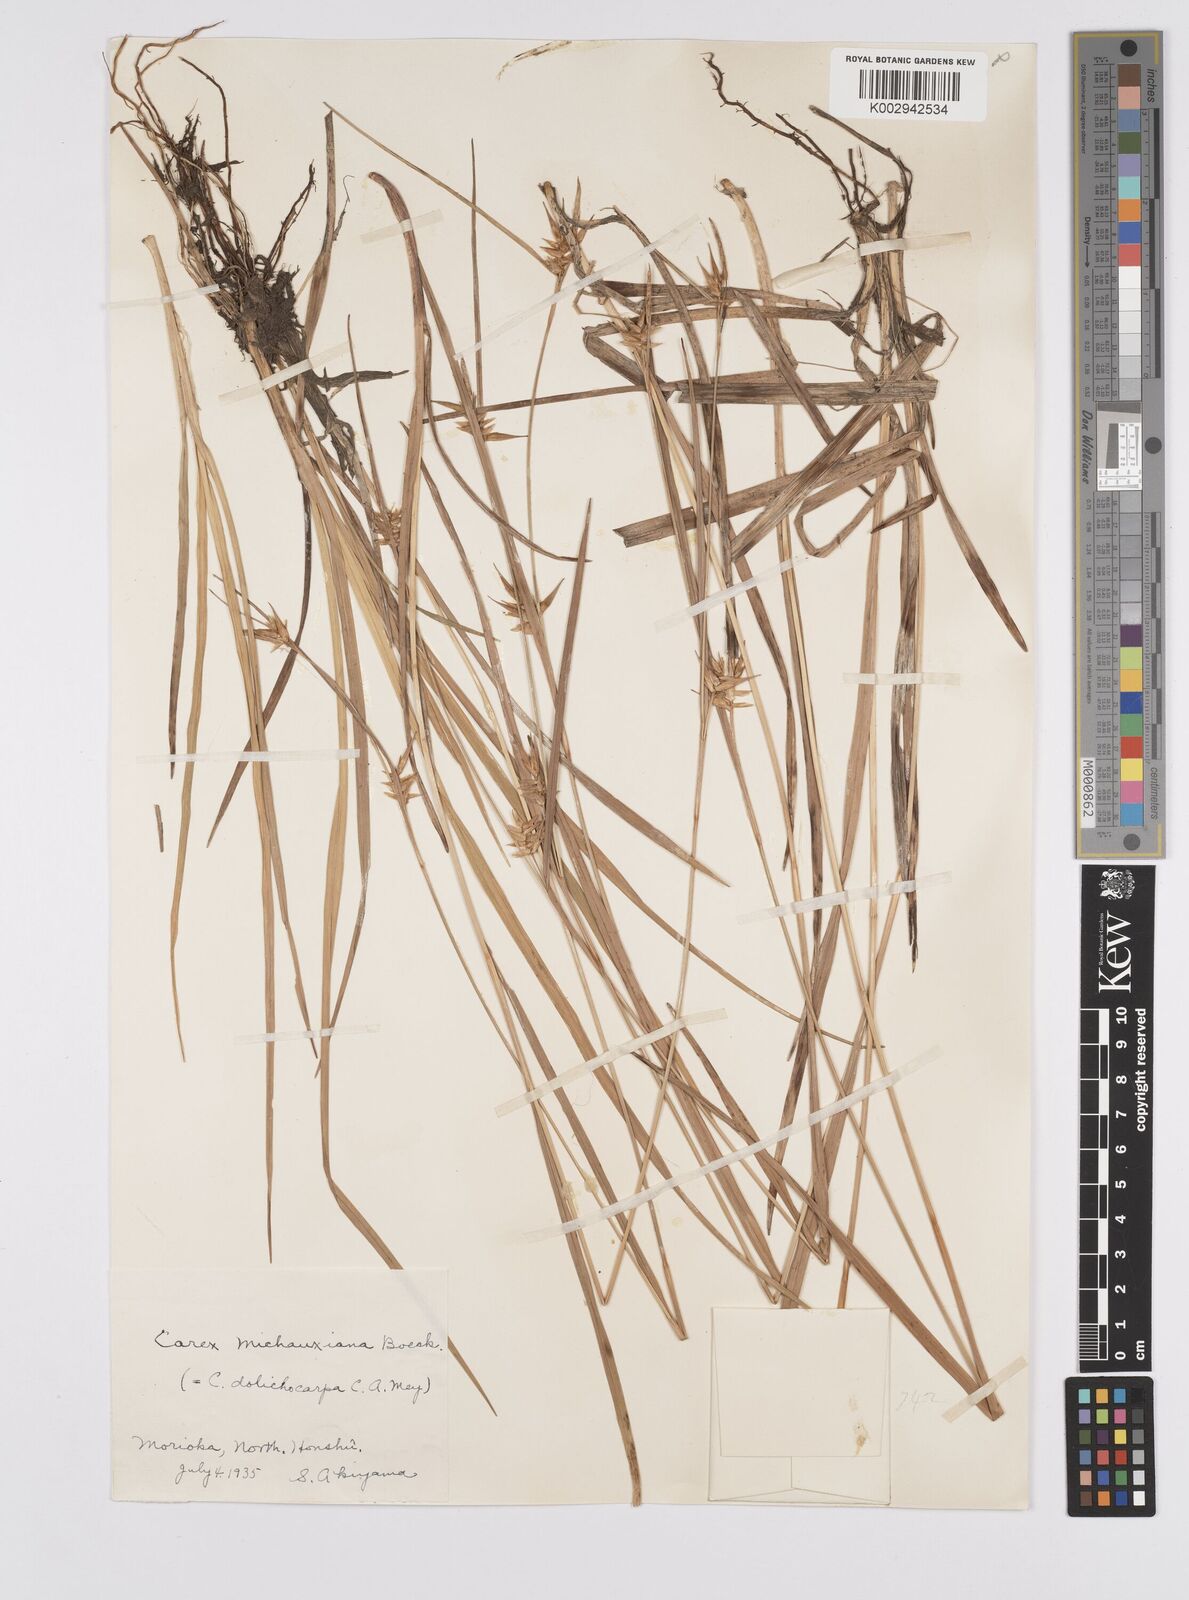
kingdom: Plantae
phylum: Tracheophyta
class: Liliopsida
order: Poales
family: Cyperaceae
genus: Carex
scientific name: Carex michauxiana
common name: Michaux's sedge
